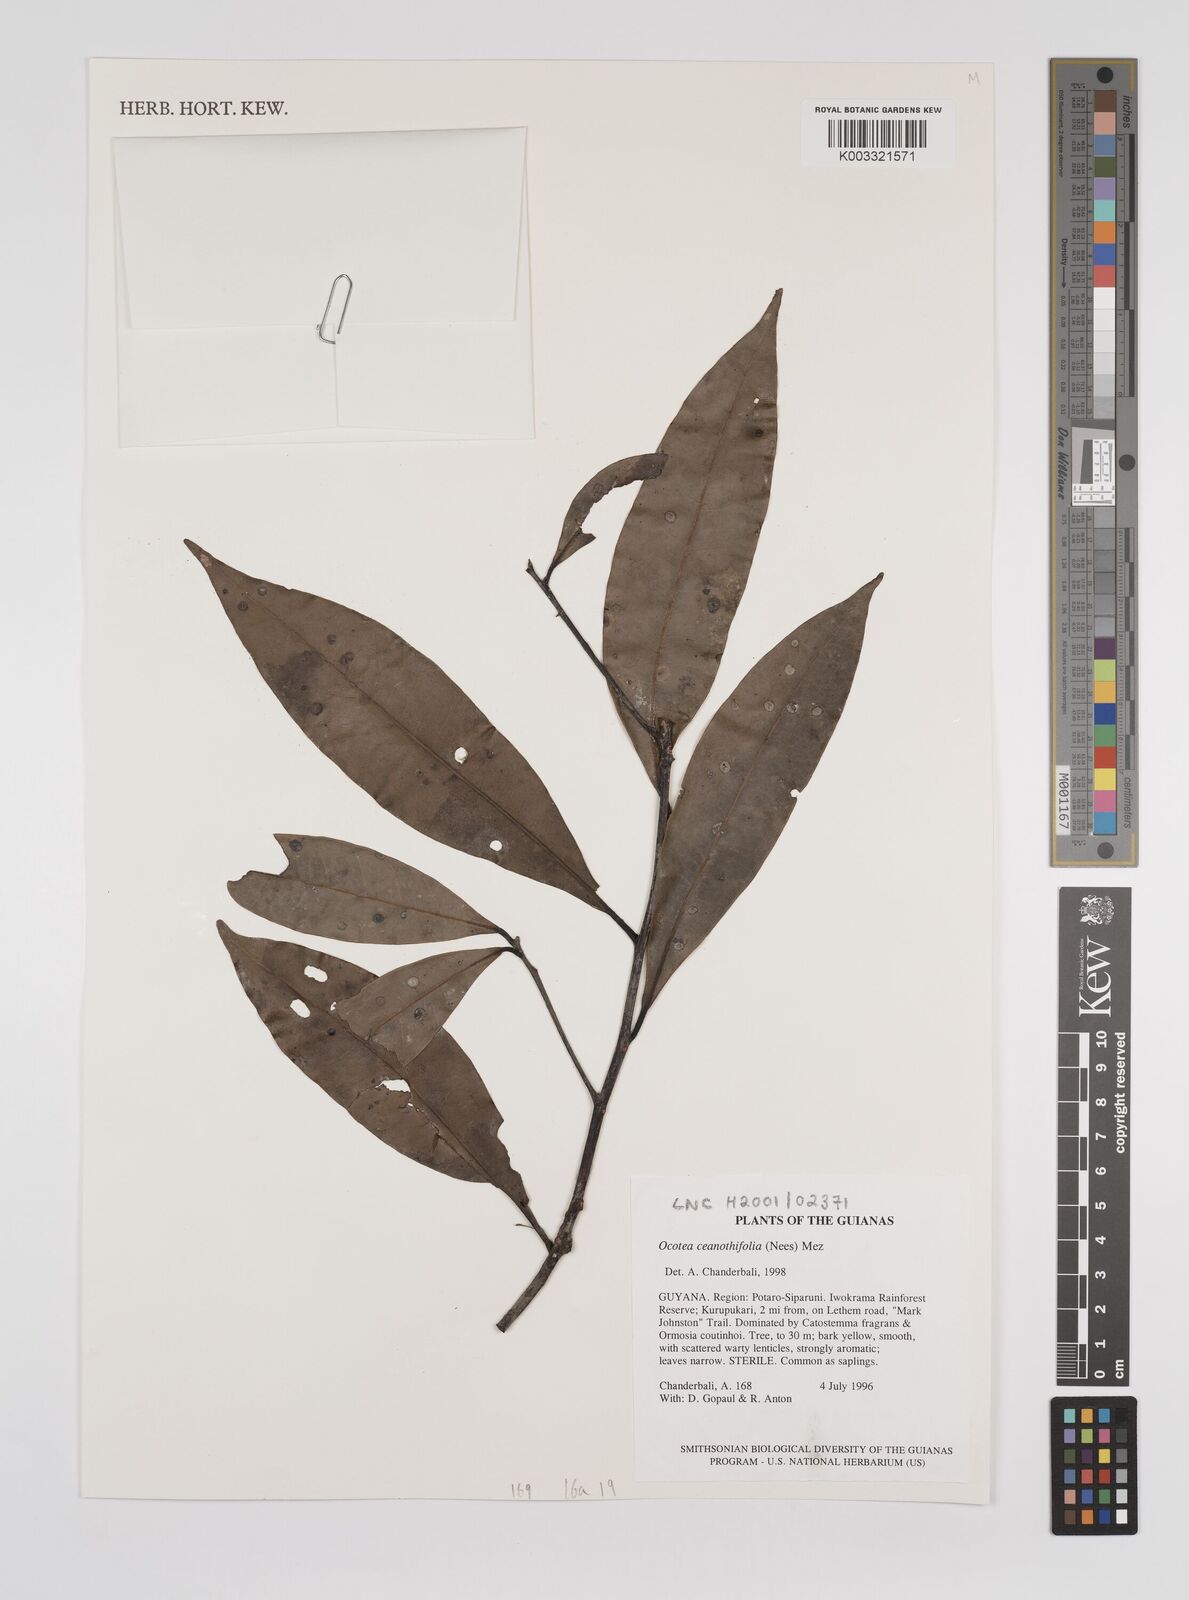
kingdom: Plantae
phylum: Tracheophyta
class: Magnoliopsida
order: Laurales
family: Lauraceae
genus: Mespilodaphne
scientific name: Mespilodaphne ceanothifolia
